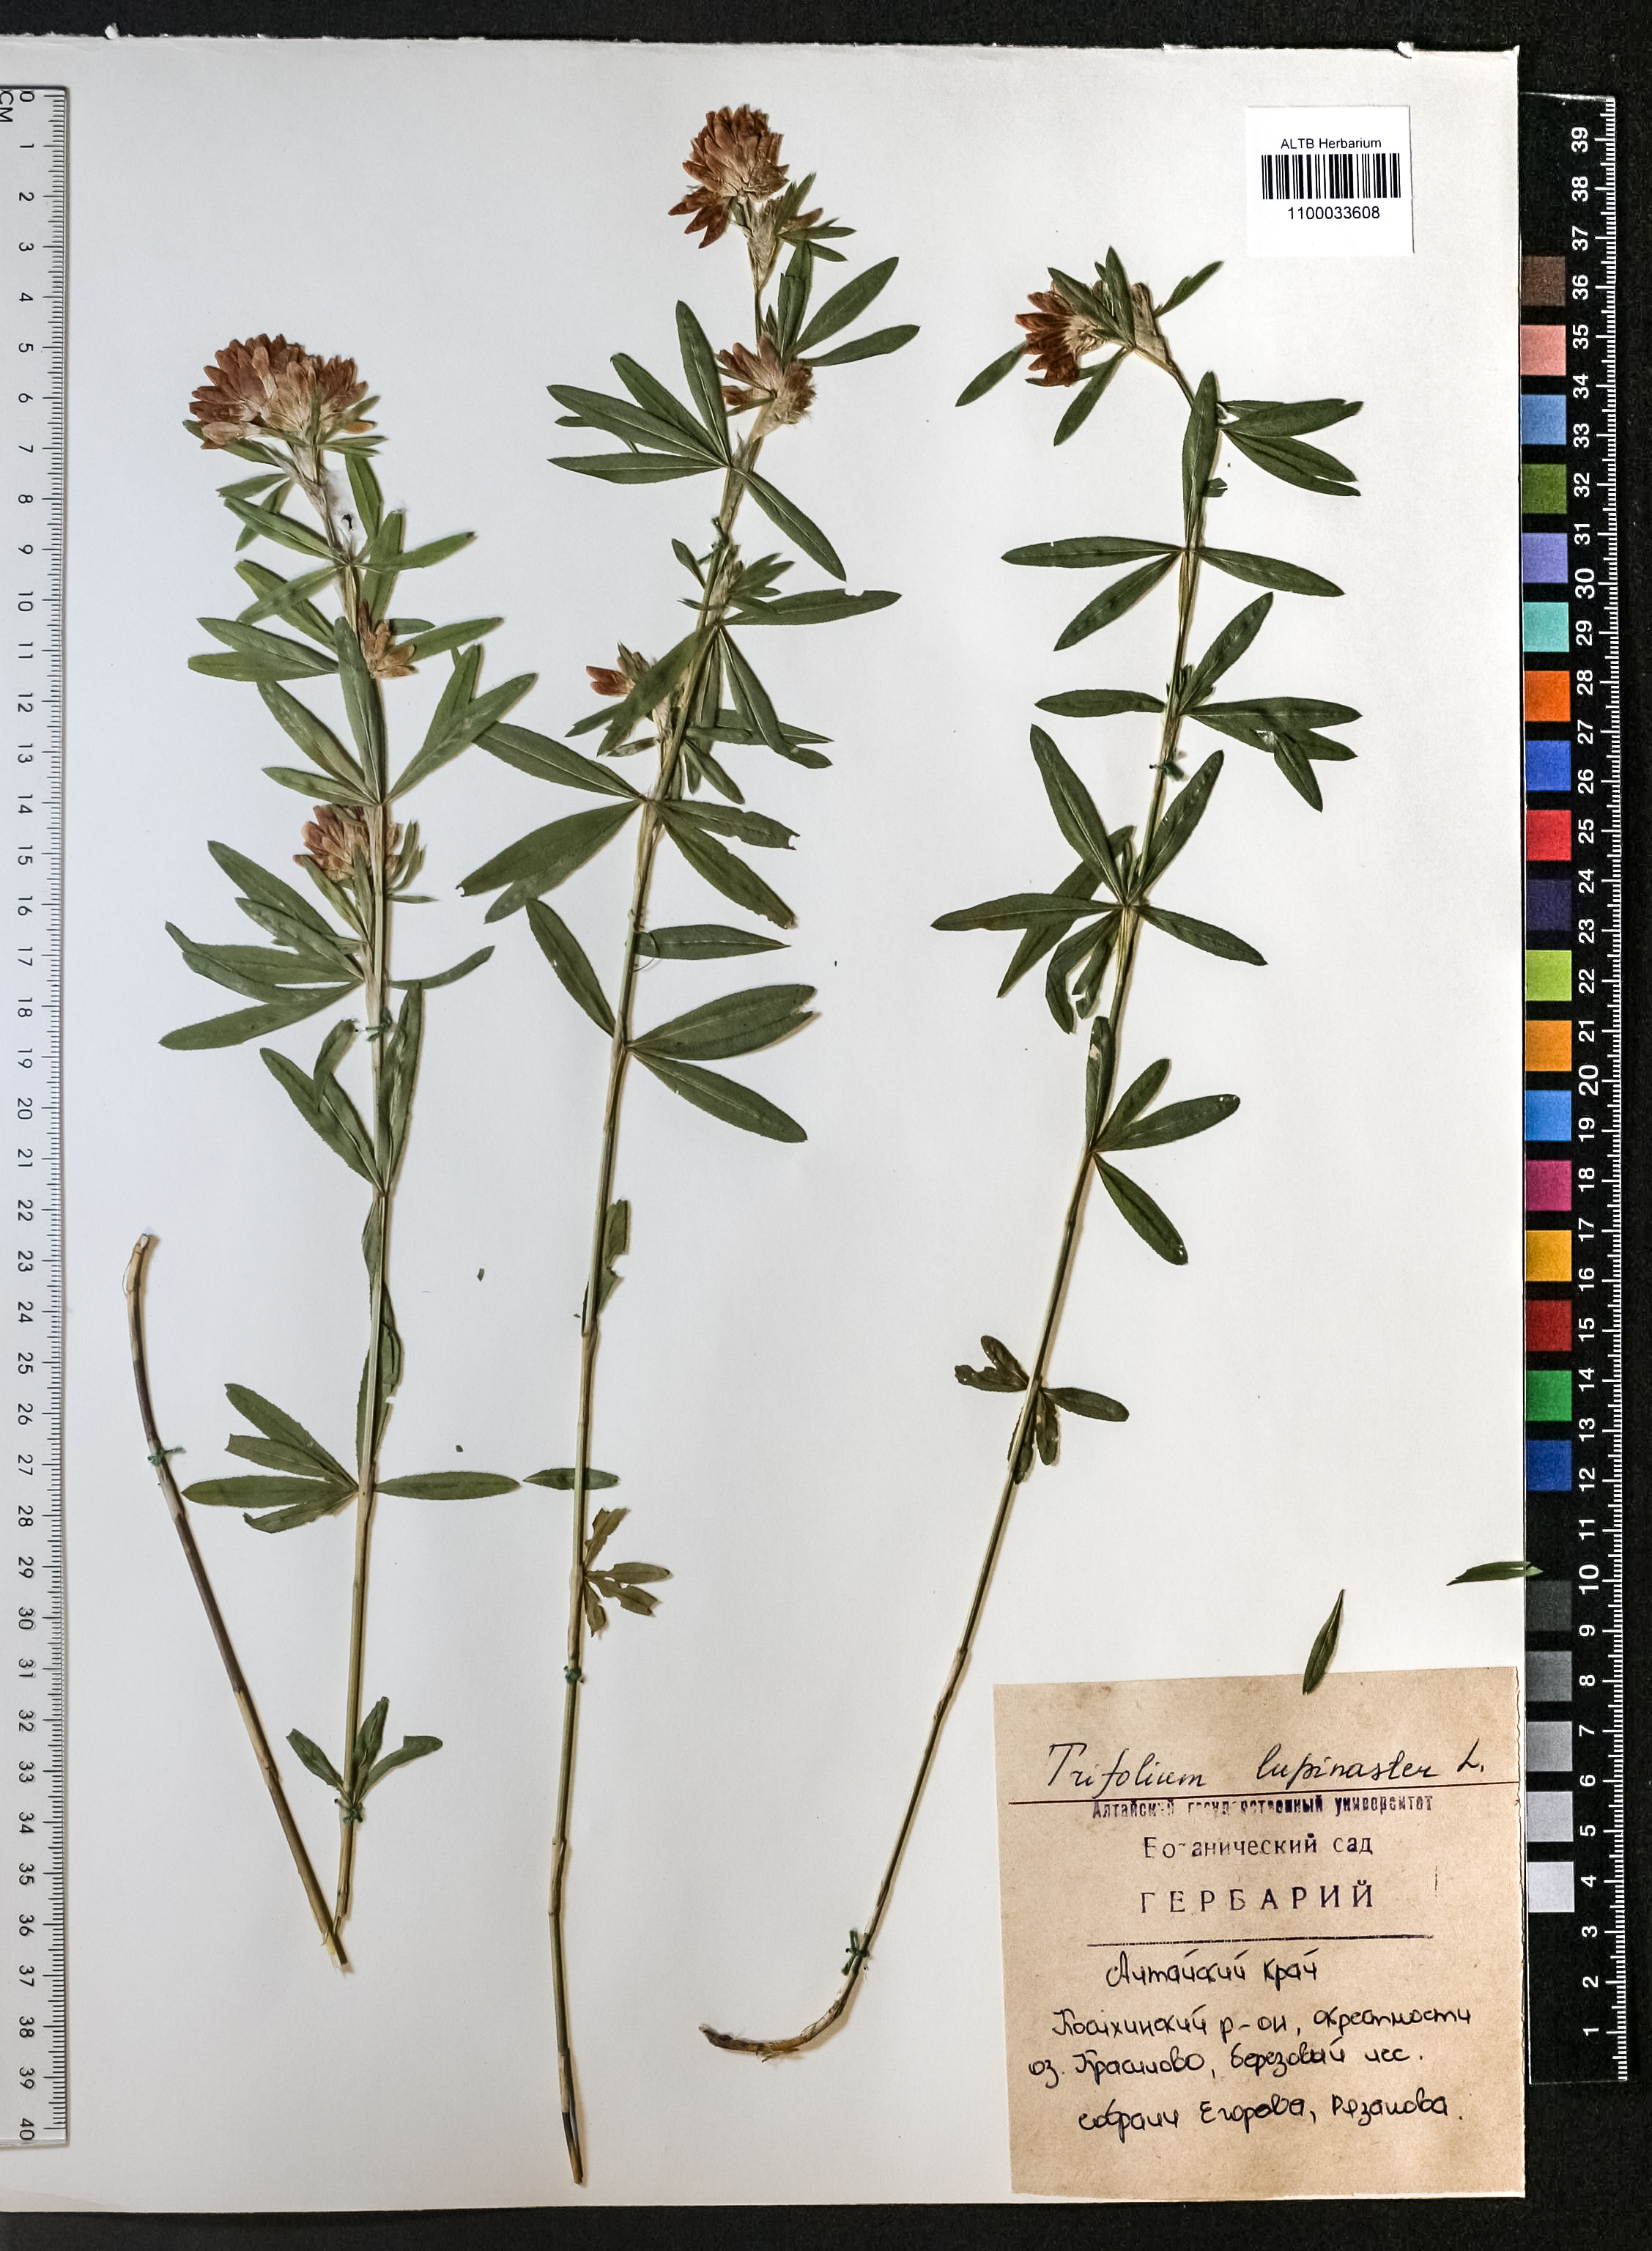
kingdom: Plantae
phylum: Tracheophyta
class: Magnoliopsida
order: Fabales
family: Fabaceae
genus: Trifolium
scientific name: Trifolium lupinaster
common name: Lupine clover
